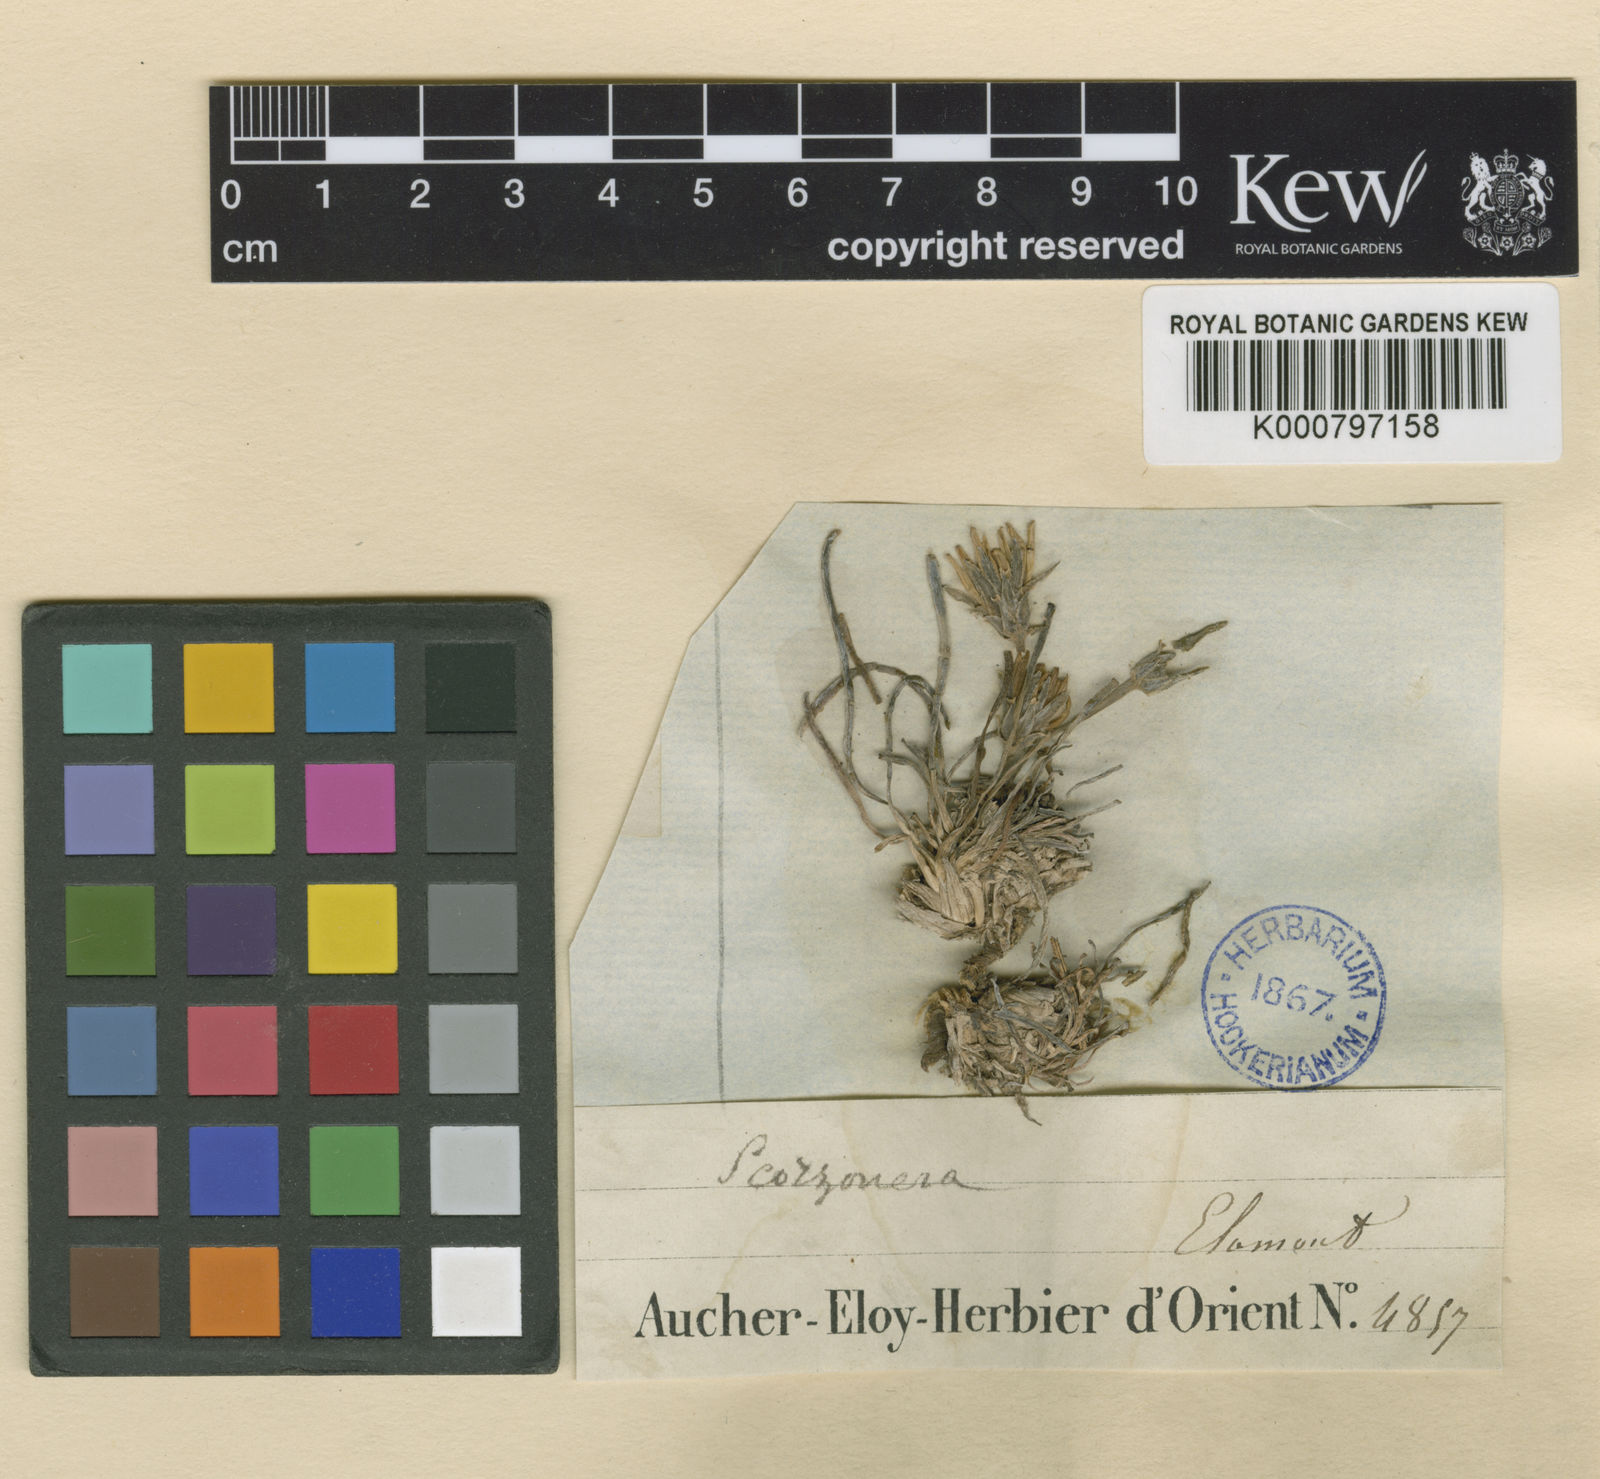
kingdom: Plantae
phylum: Tracheophyta
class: Magnoliopsida
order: Asterales
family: Asteraceae
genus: Goekyighitia
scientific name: Goekyighitia rigida
